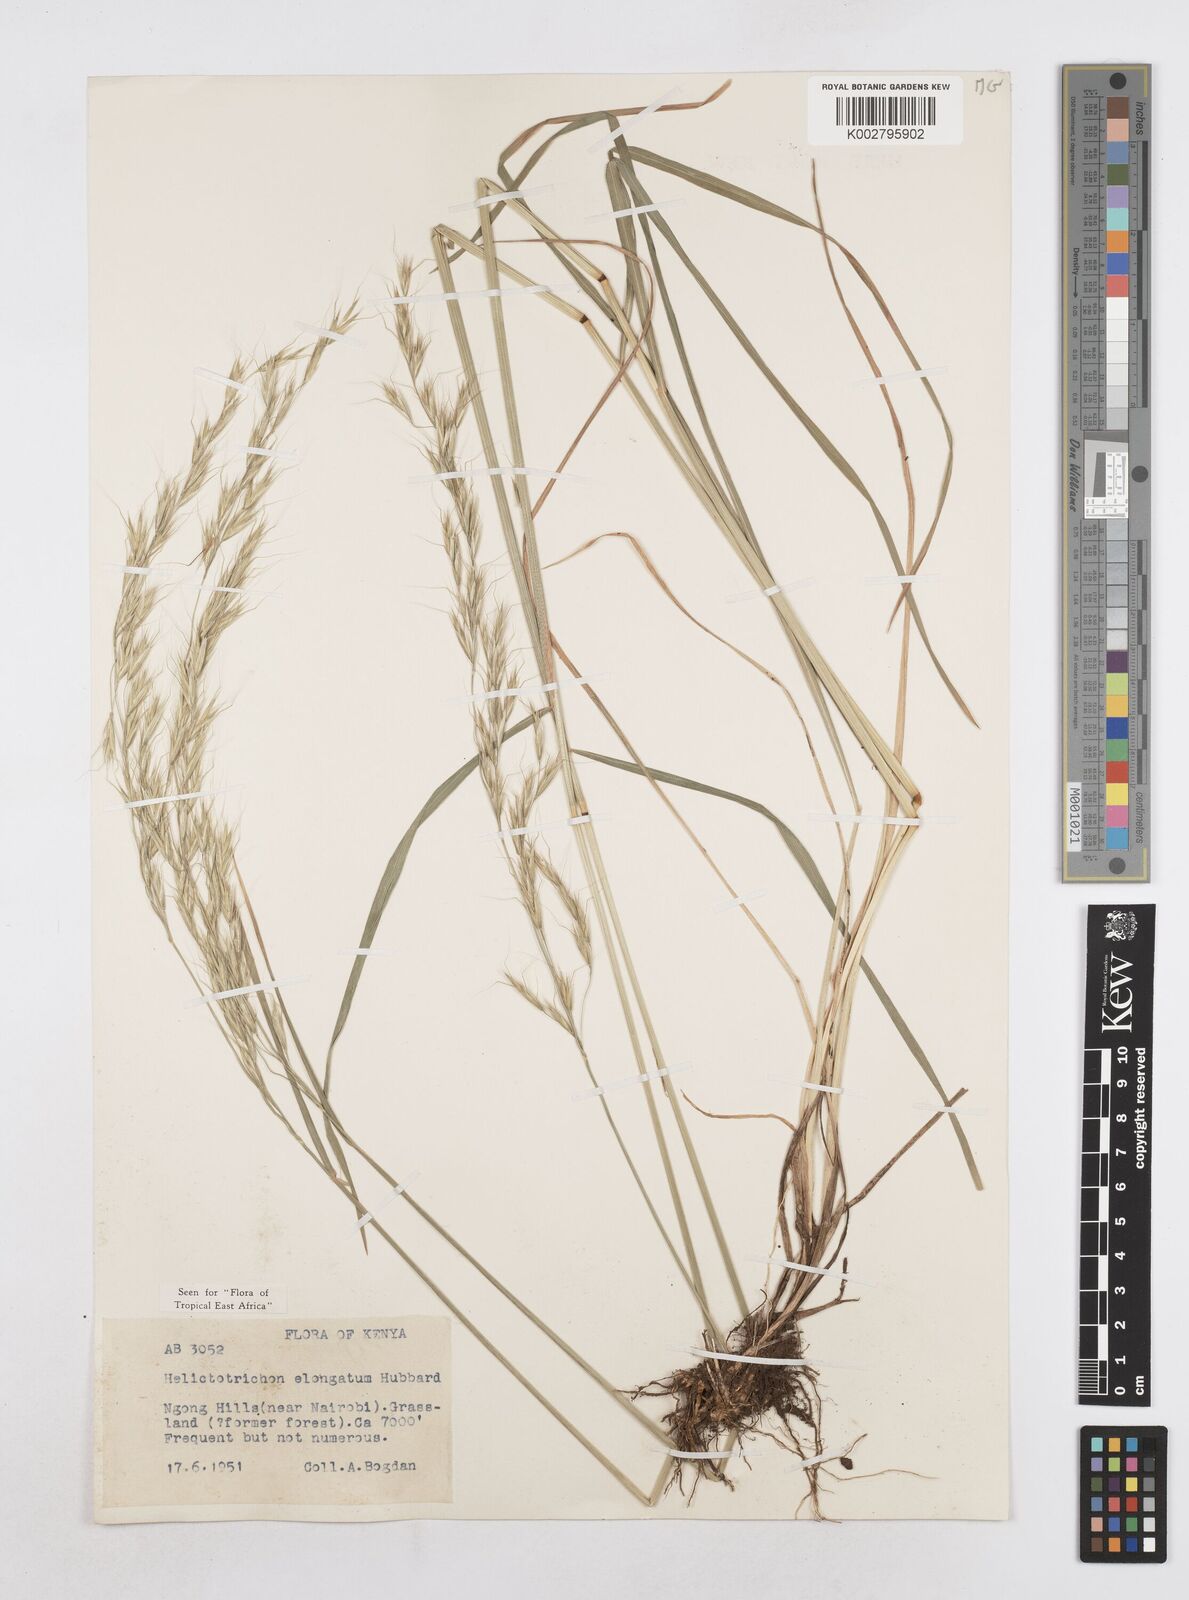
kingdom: Plantae
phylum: Tracheophyta
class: Liliopsida
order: Poales
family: Poaceae
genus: Trisetopsis
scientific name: Trisetopsis elongata
